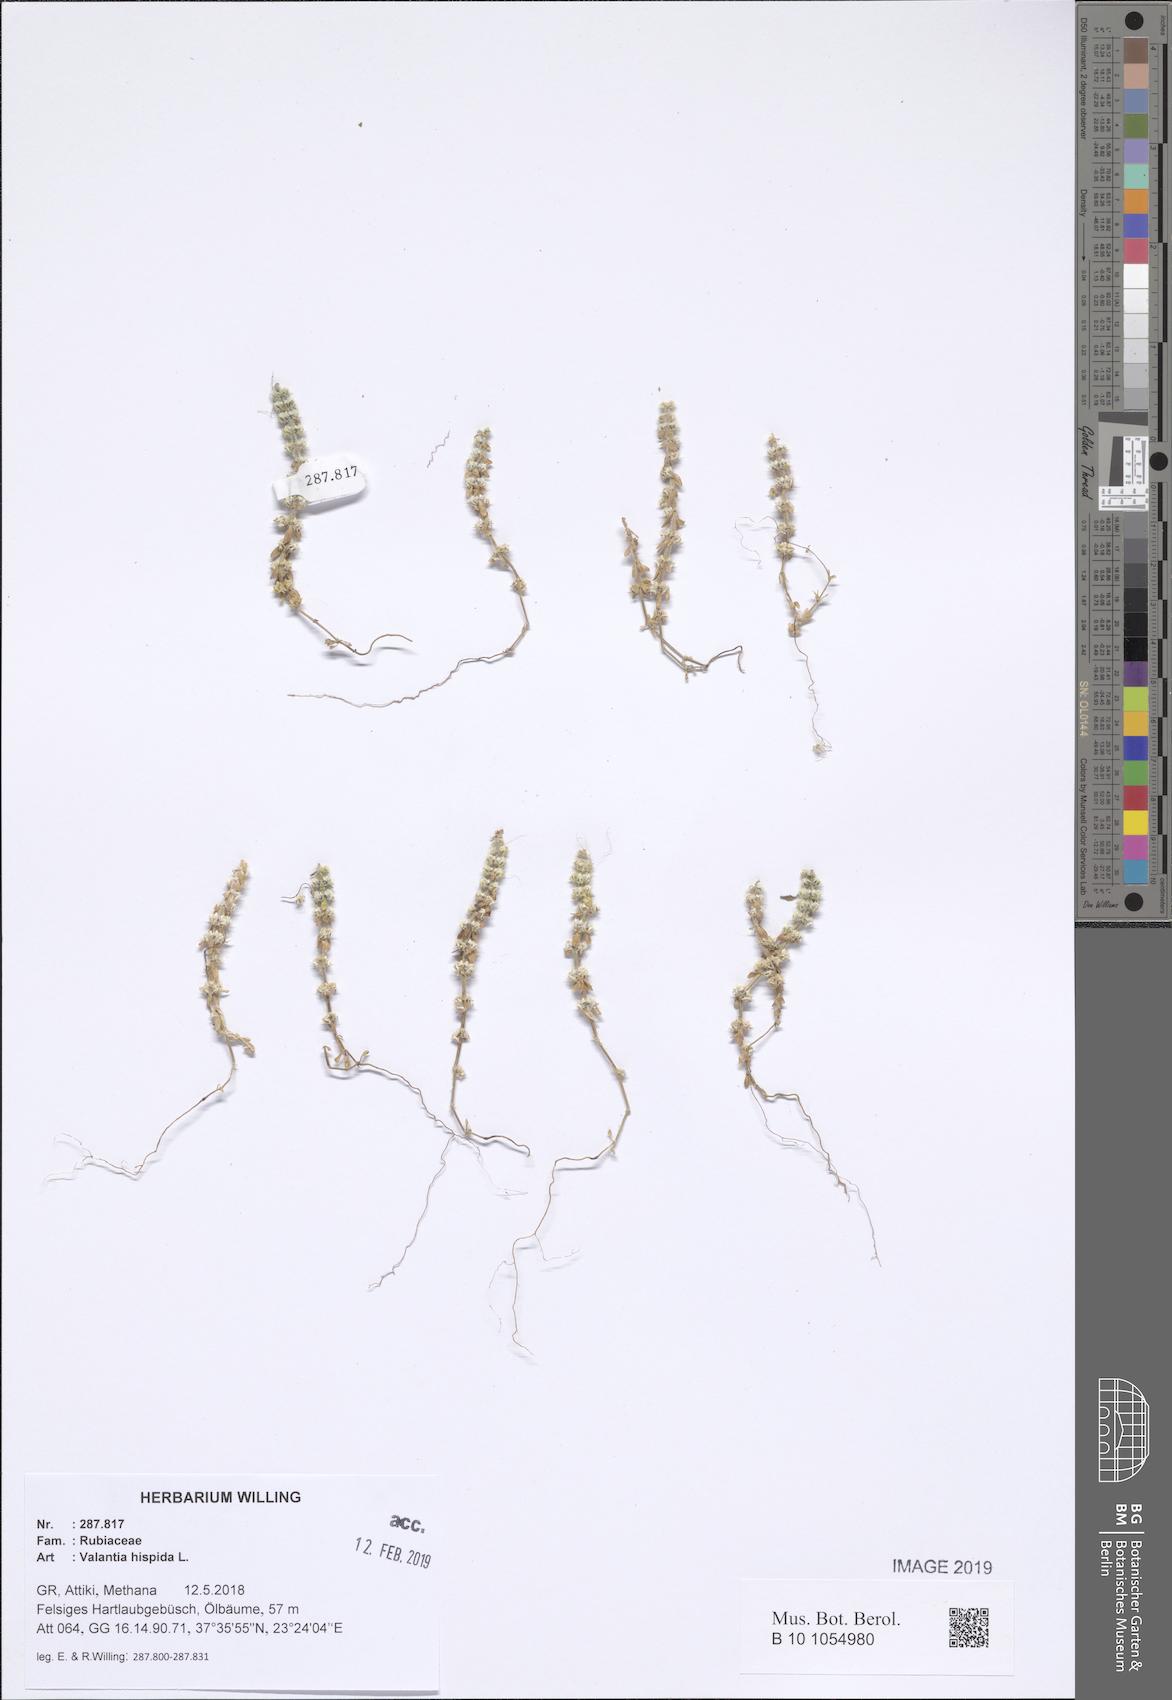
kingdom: Plantae
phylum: Tracheophyta
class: Magnoliopsida
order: Gentianales
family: Rubiaceae
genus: Valantia
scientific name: Valantia hispida
